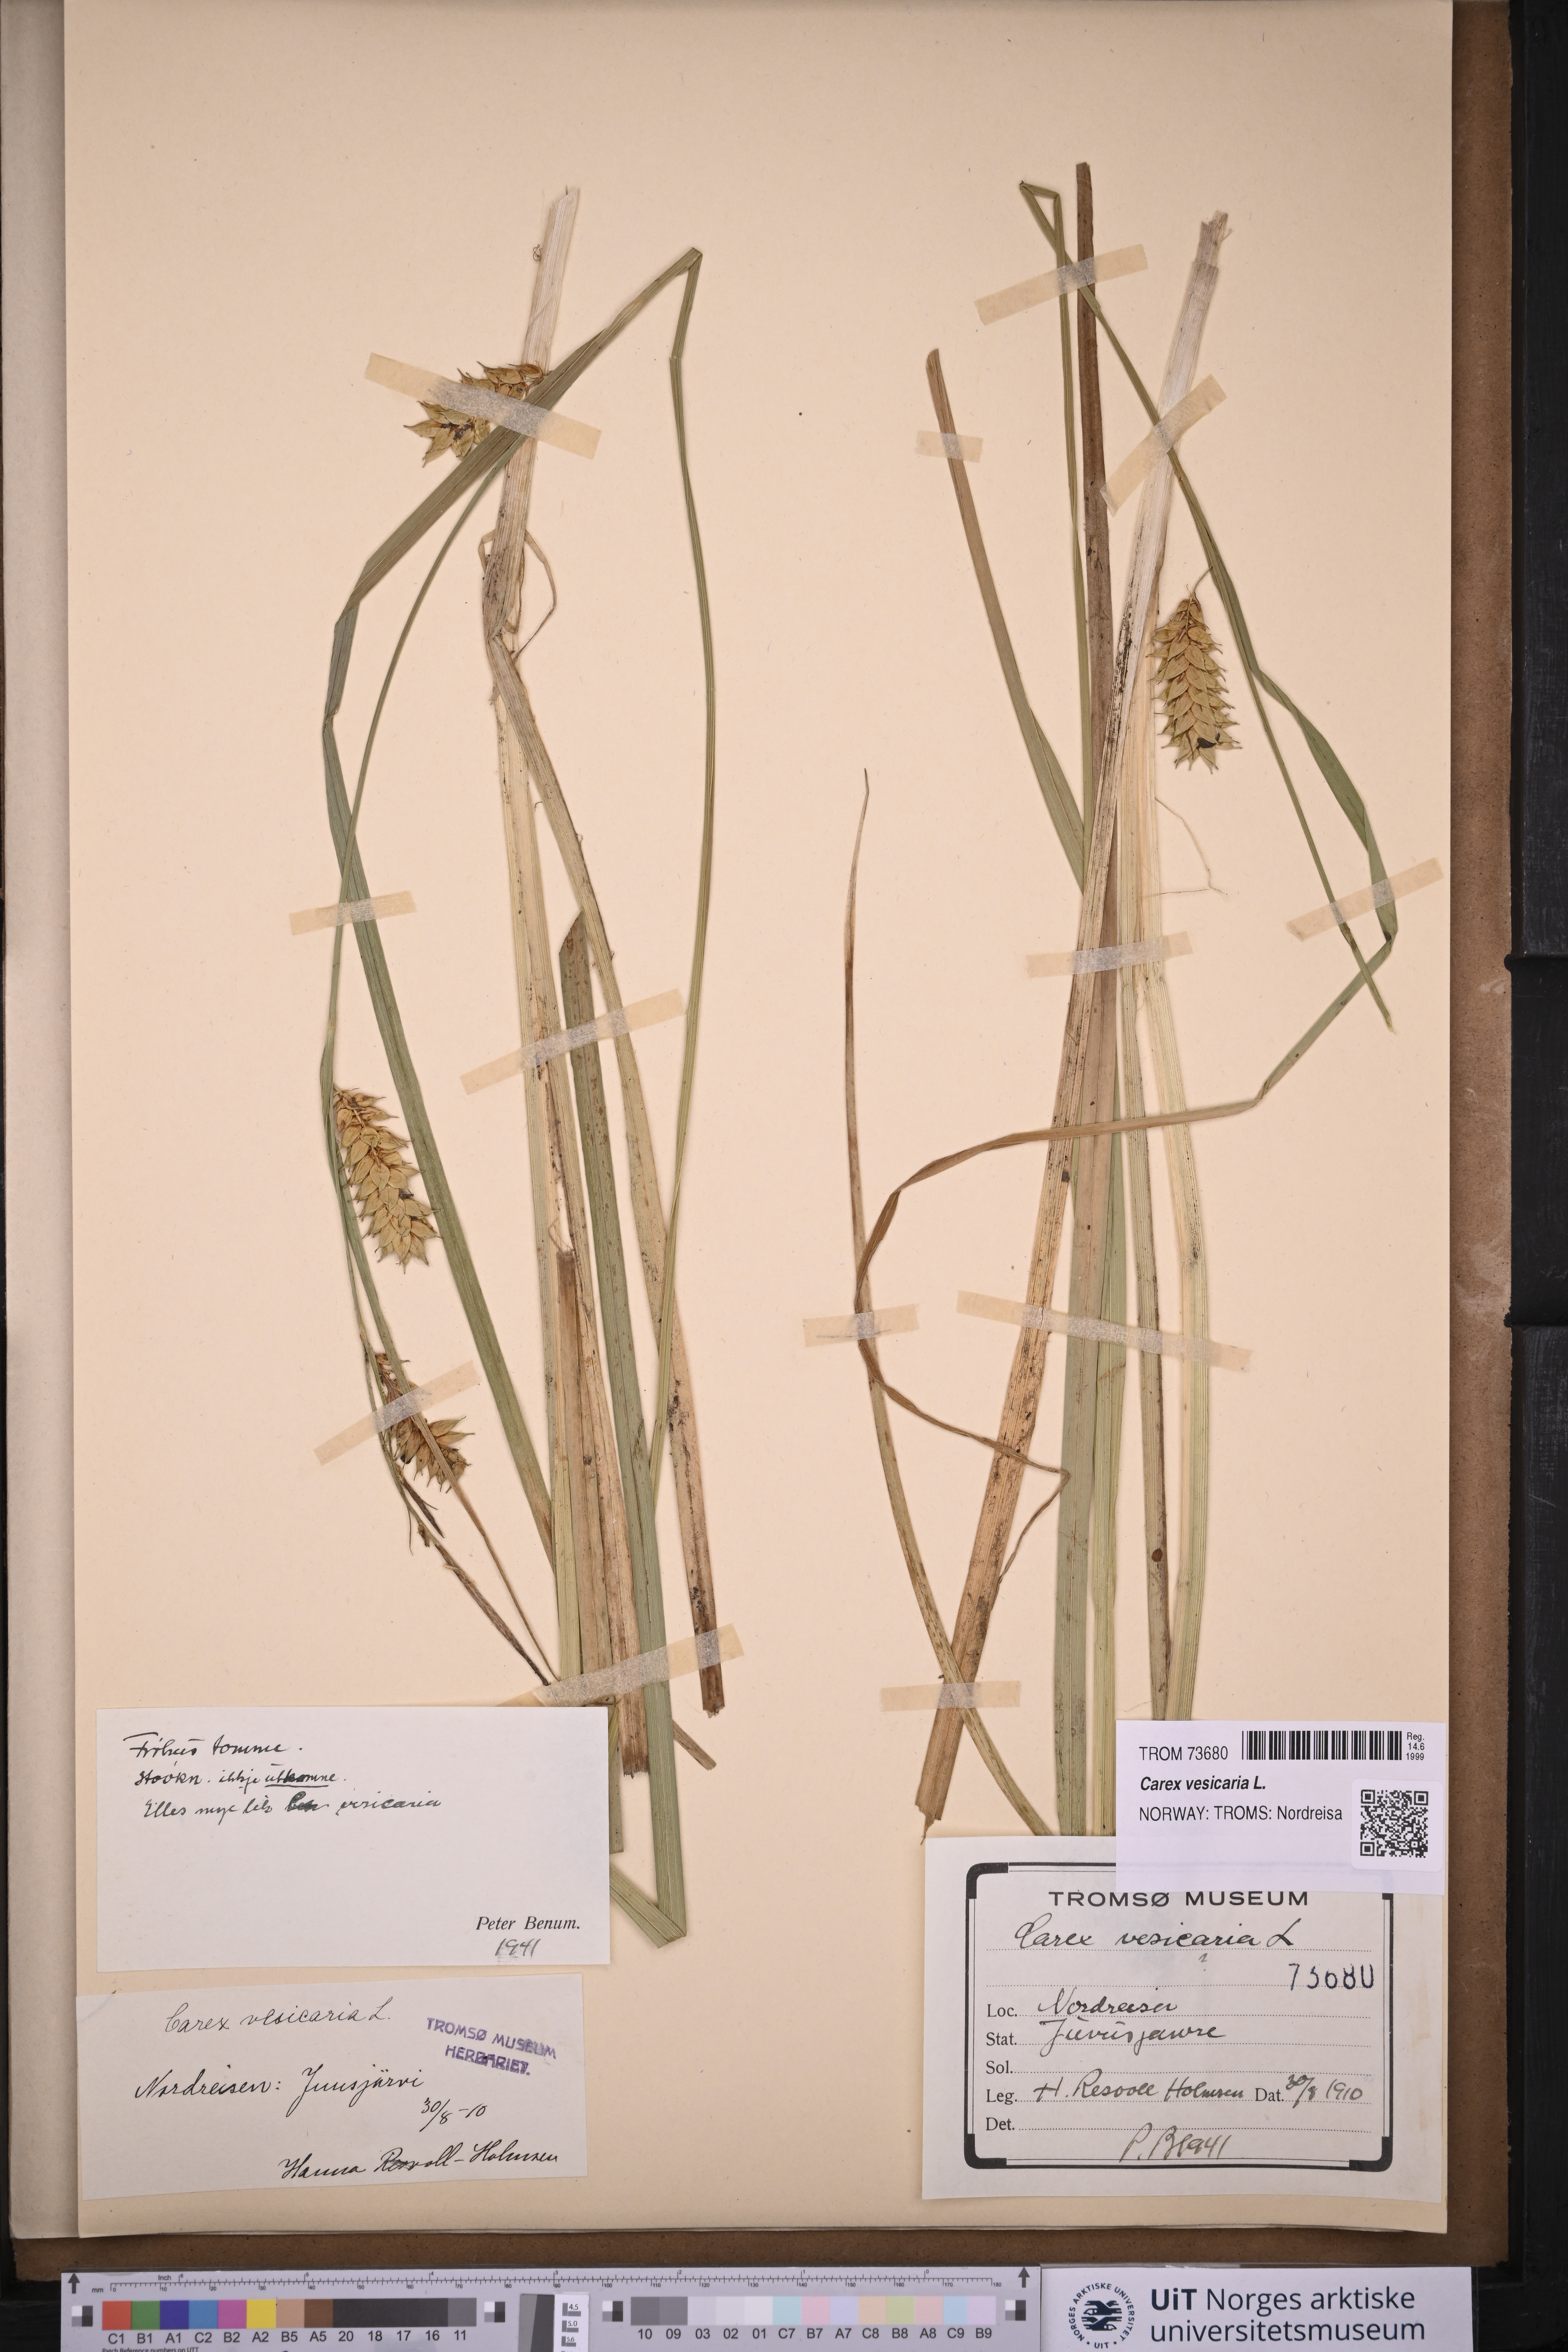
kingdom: Plantae
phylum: Tracheophyta
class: Liliopsida
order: Poales
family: Cyperaceae
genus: Carex
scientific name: Carex vesicaria
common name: Bladder-sedge
